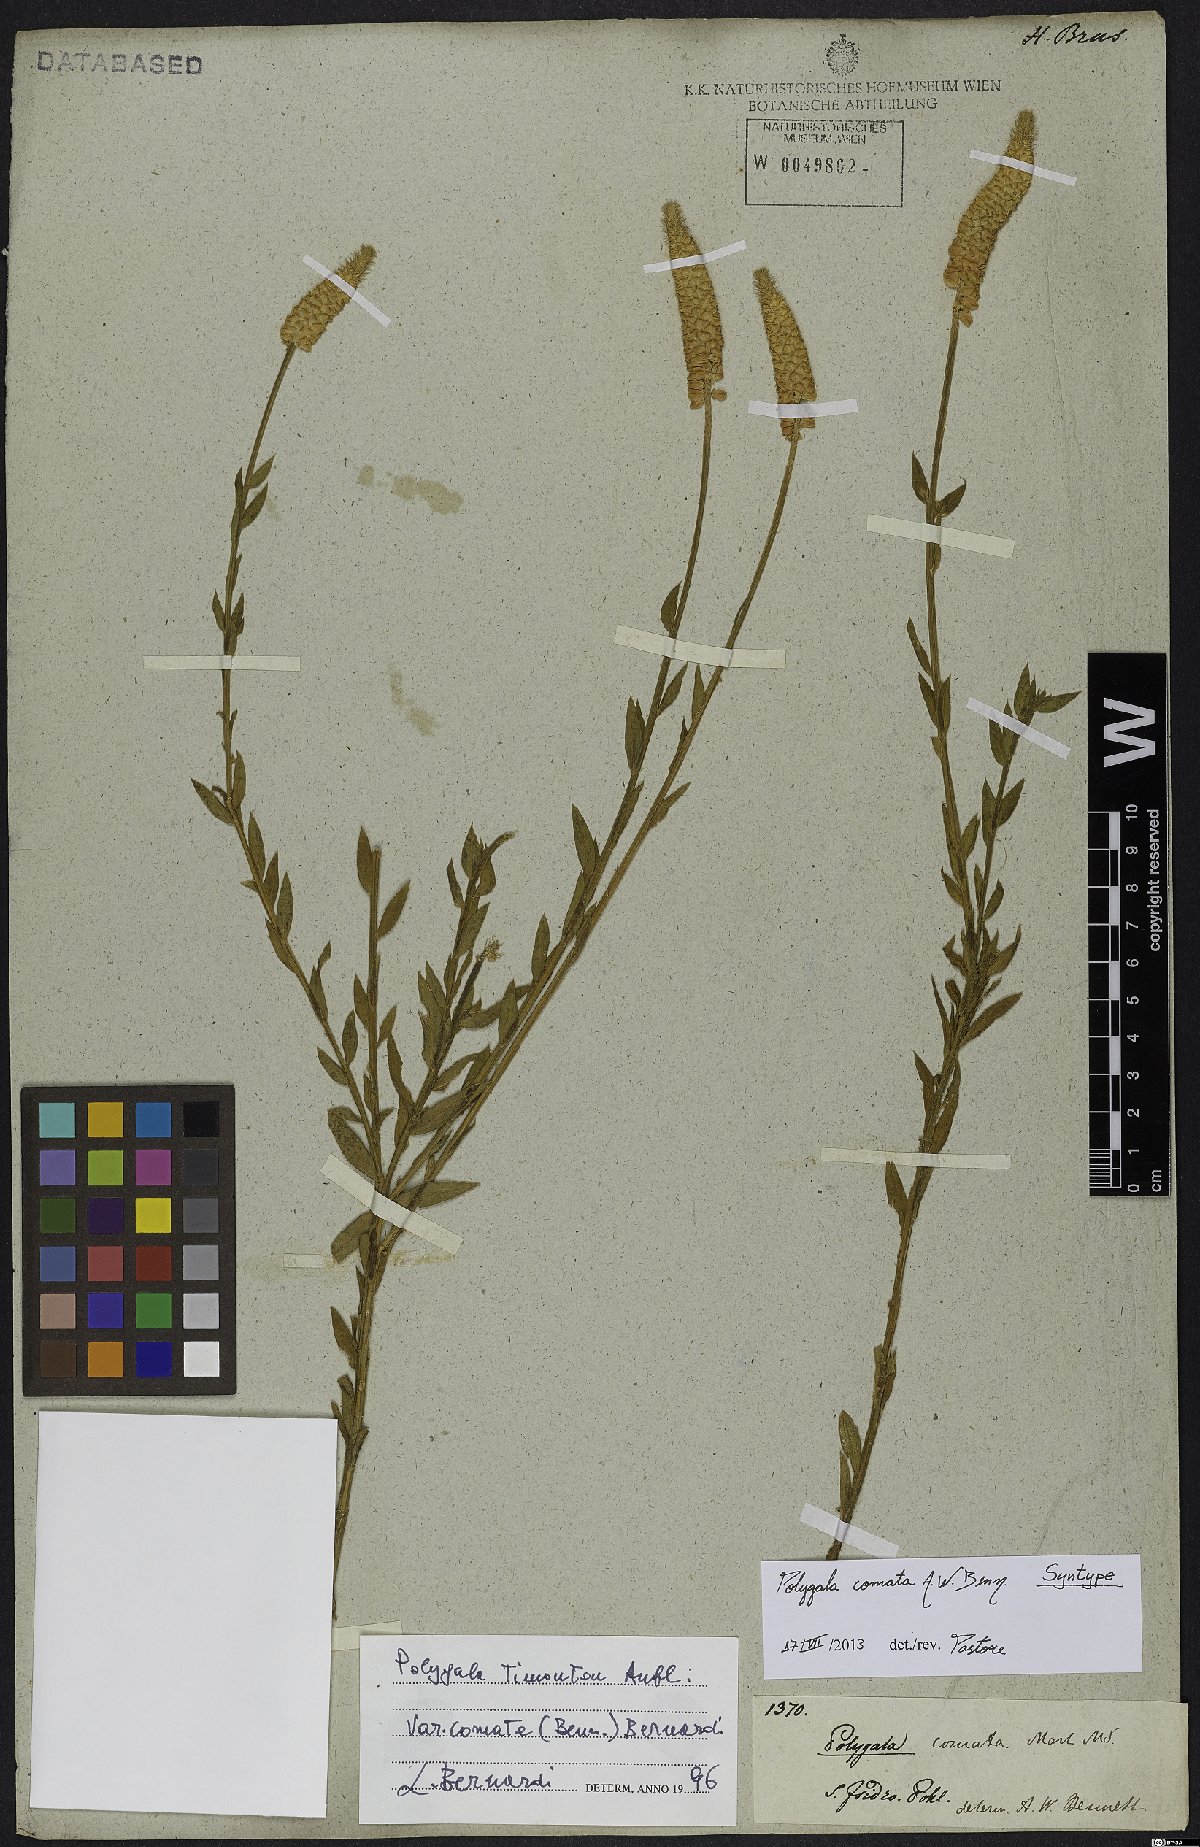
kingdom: Plantae
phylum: Tracheophyta
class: Magnoliopsida
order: Fabales
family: Polygalaceae
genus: Polygala
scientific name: Polygala cuspidata
